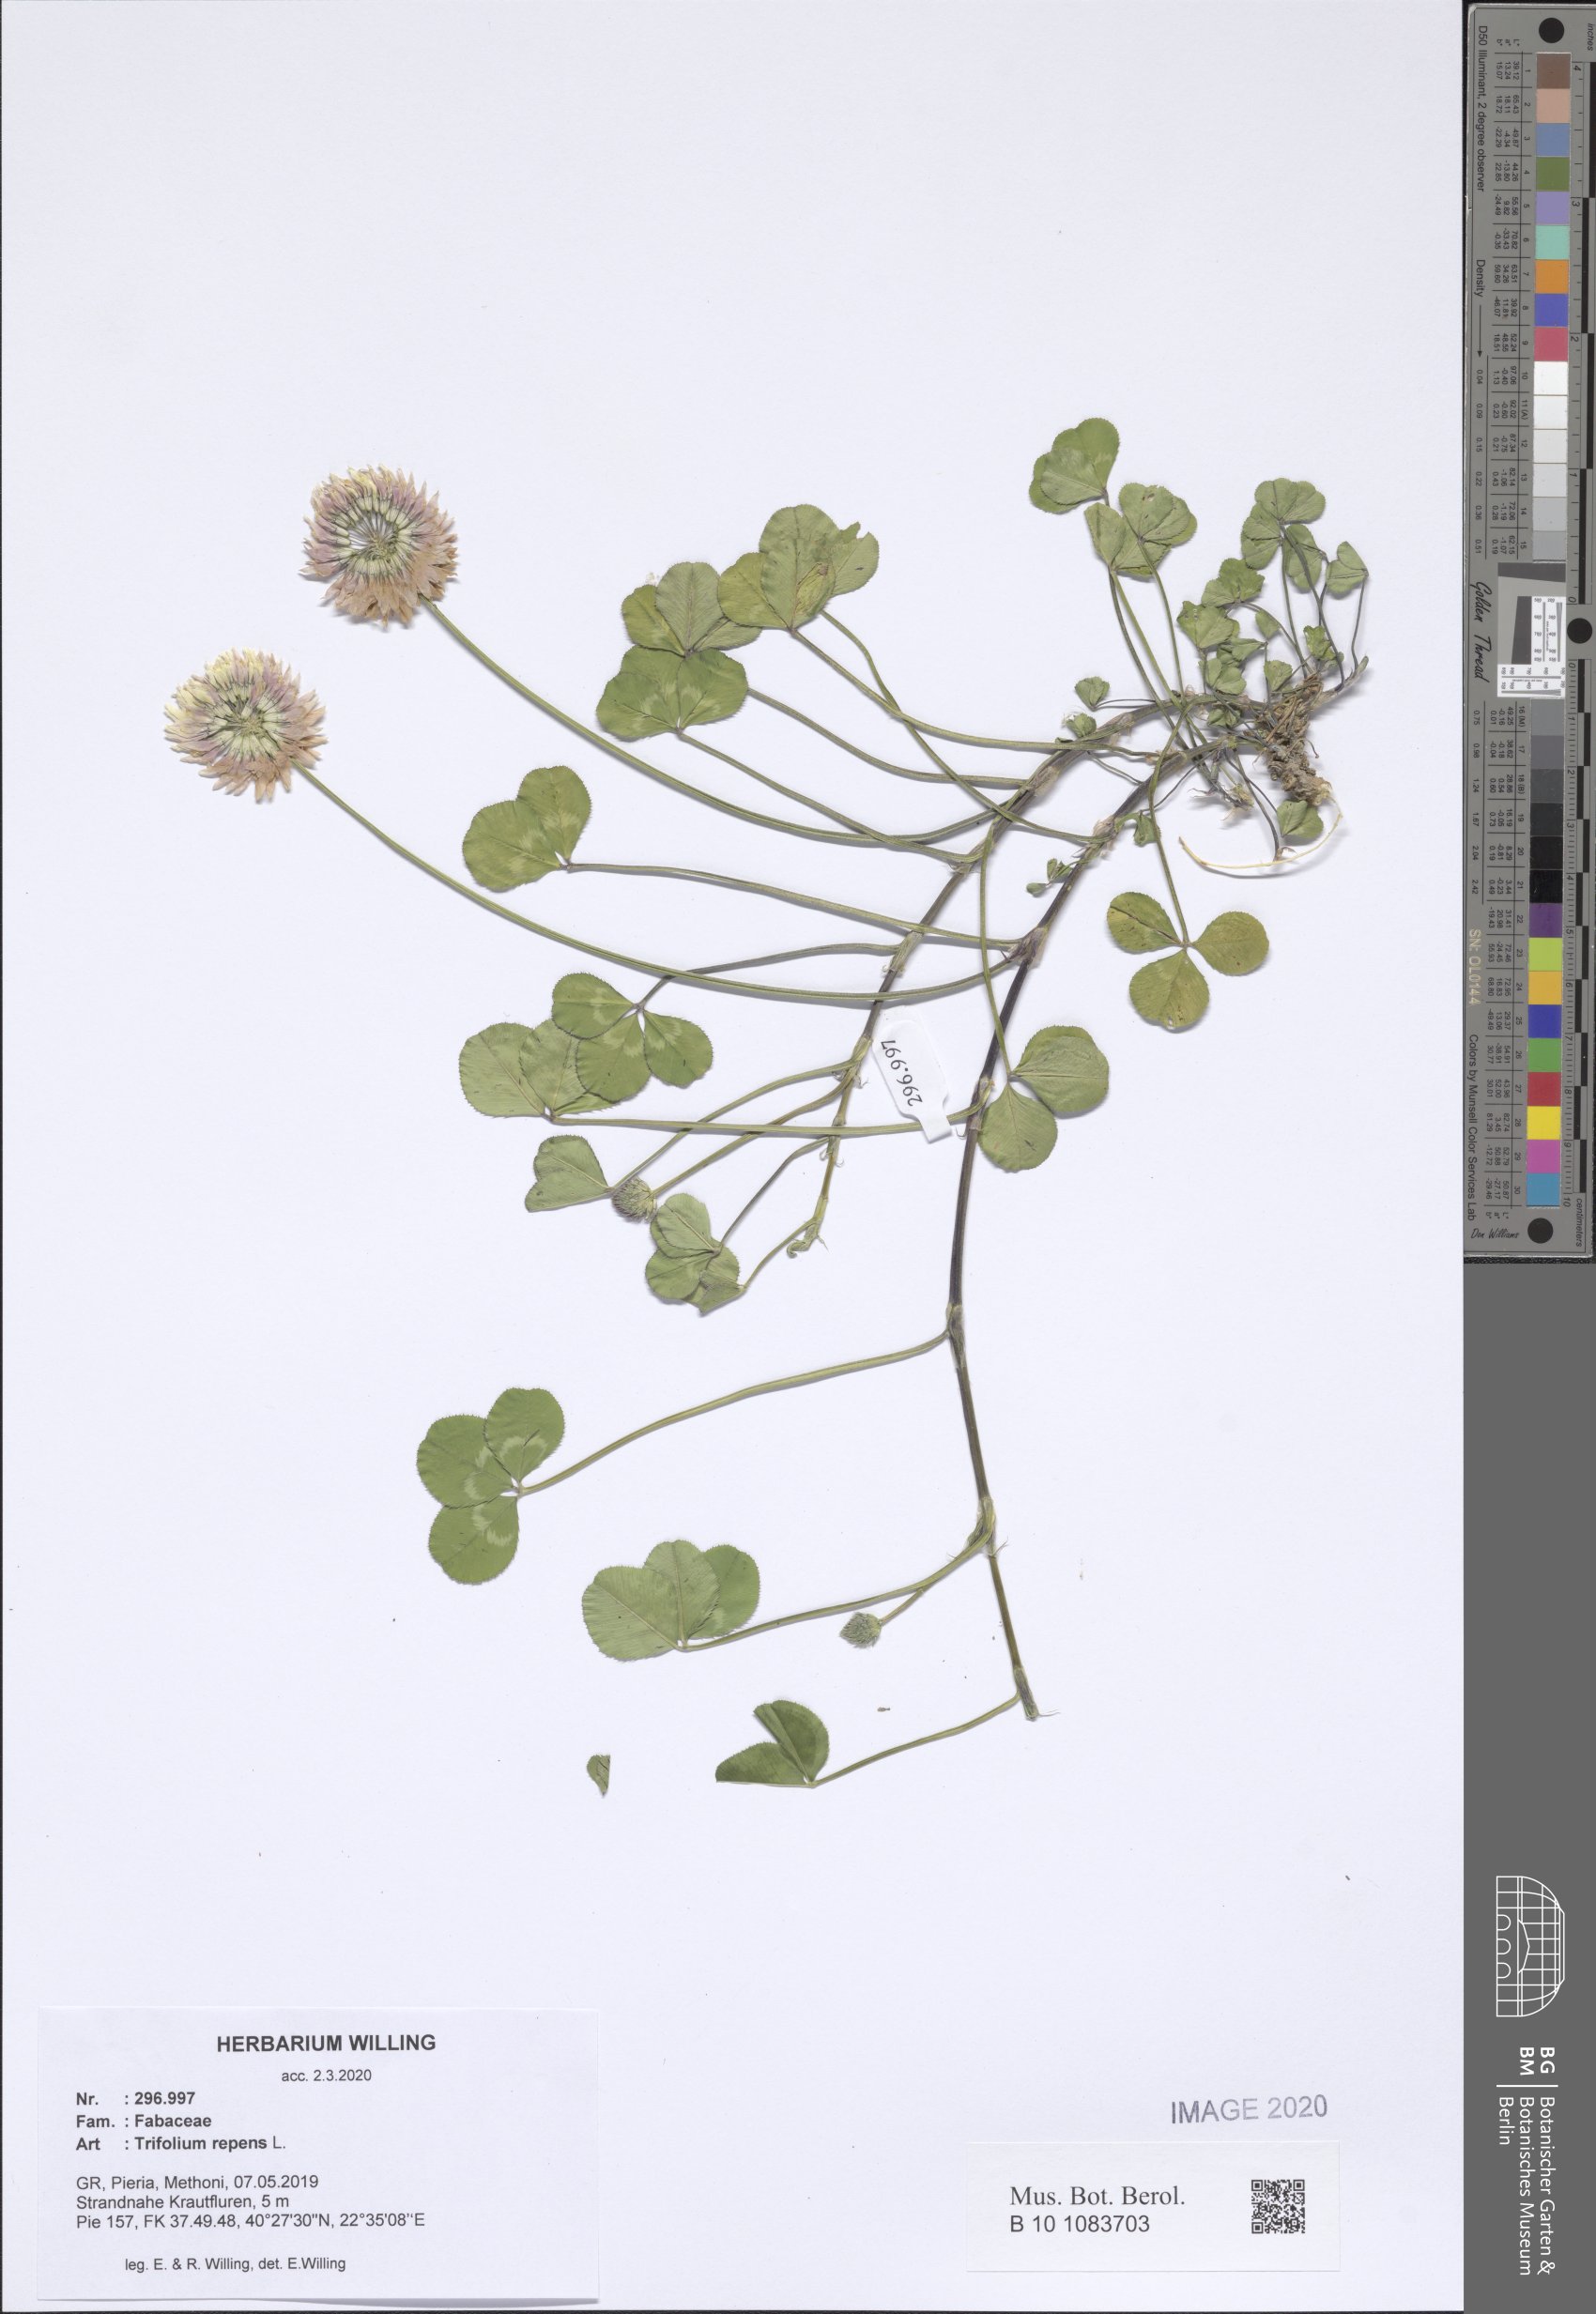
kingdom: Plantae
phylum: Tracheophyta
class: Magnoliopsida
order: Fabales
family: Fabaceae
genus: Trifolium
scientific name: Trifolium repens
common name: White clover
